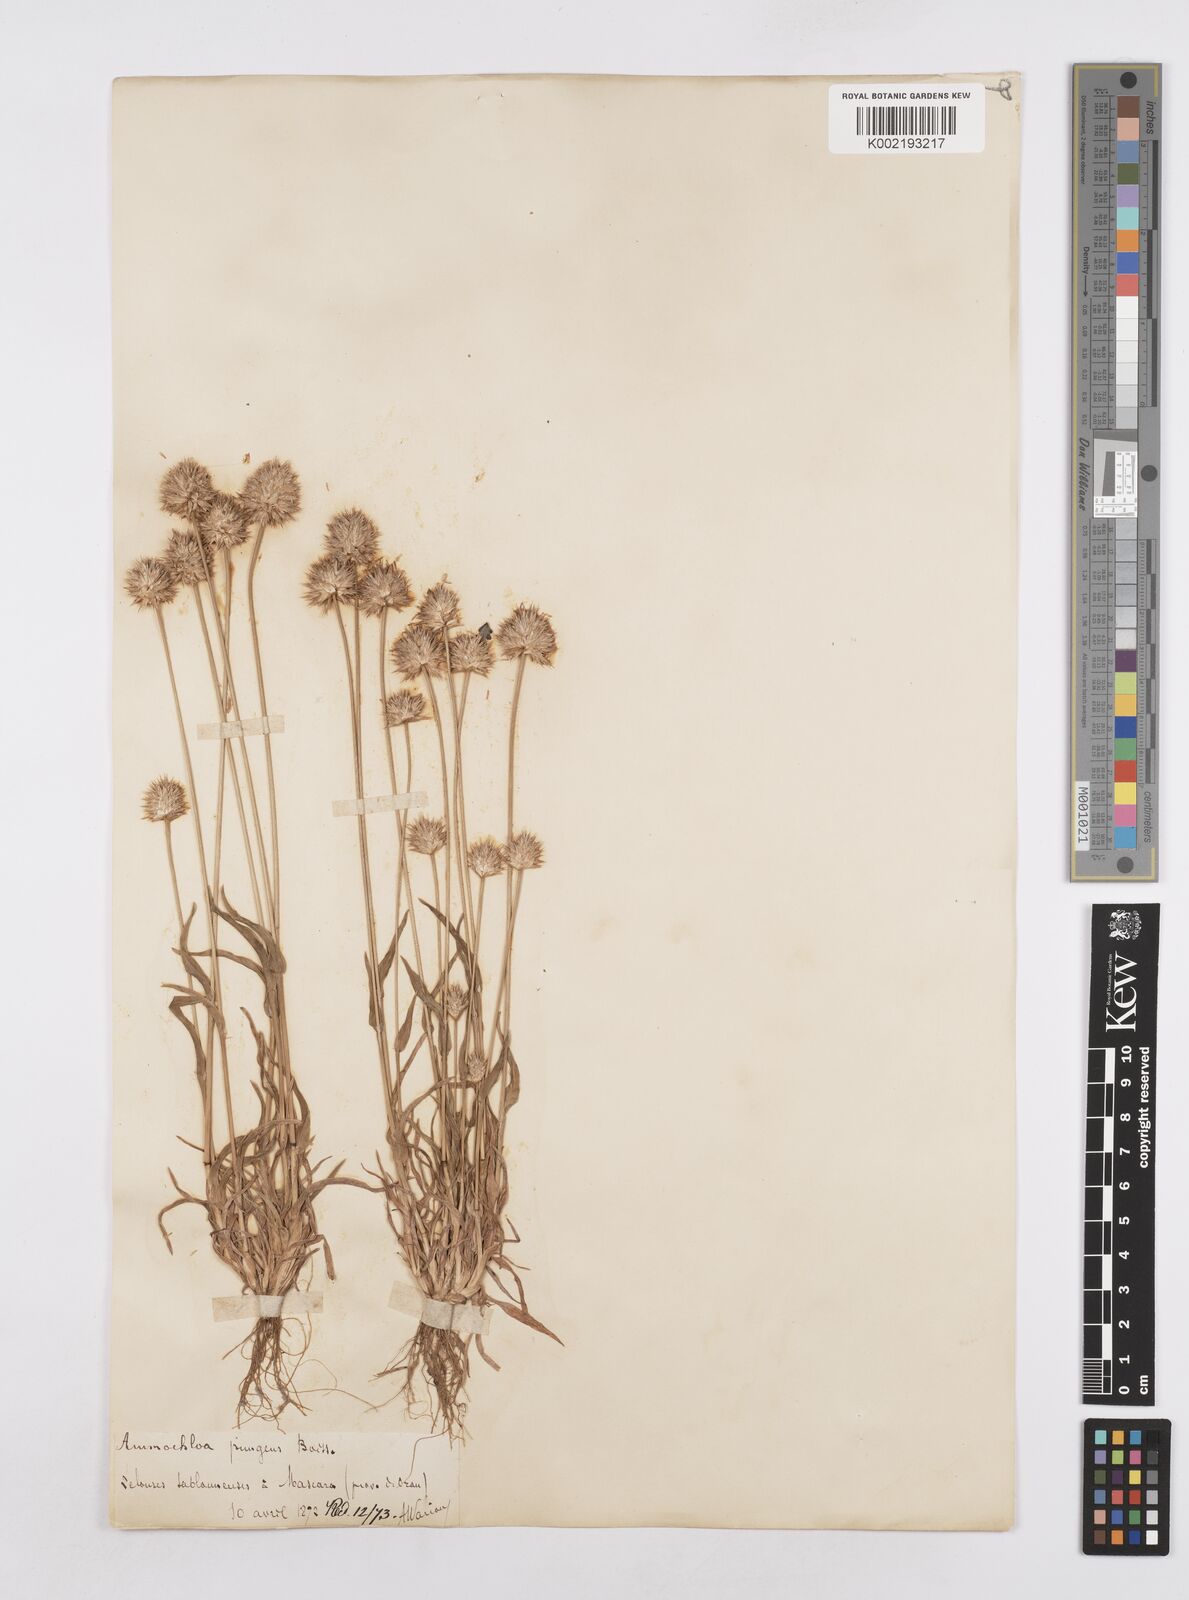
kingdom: Plantae
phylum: Tracheophyta
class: Liliopsida
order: Poales
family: Poaceae
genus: Ammochloa
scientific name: Ammochloa pungens
